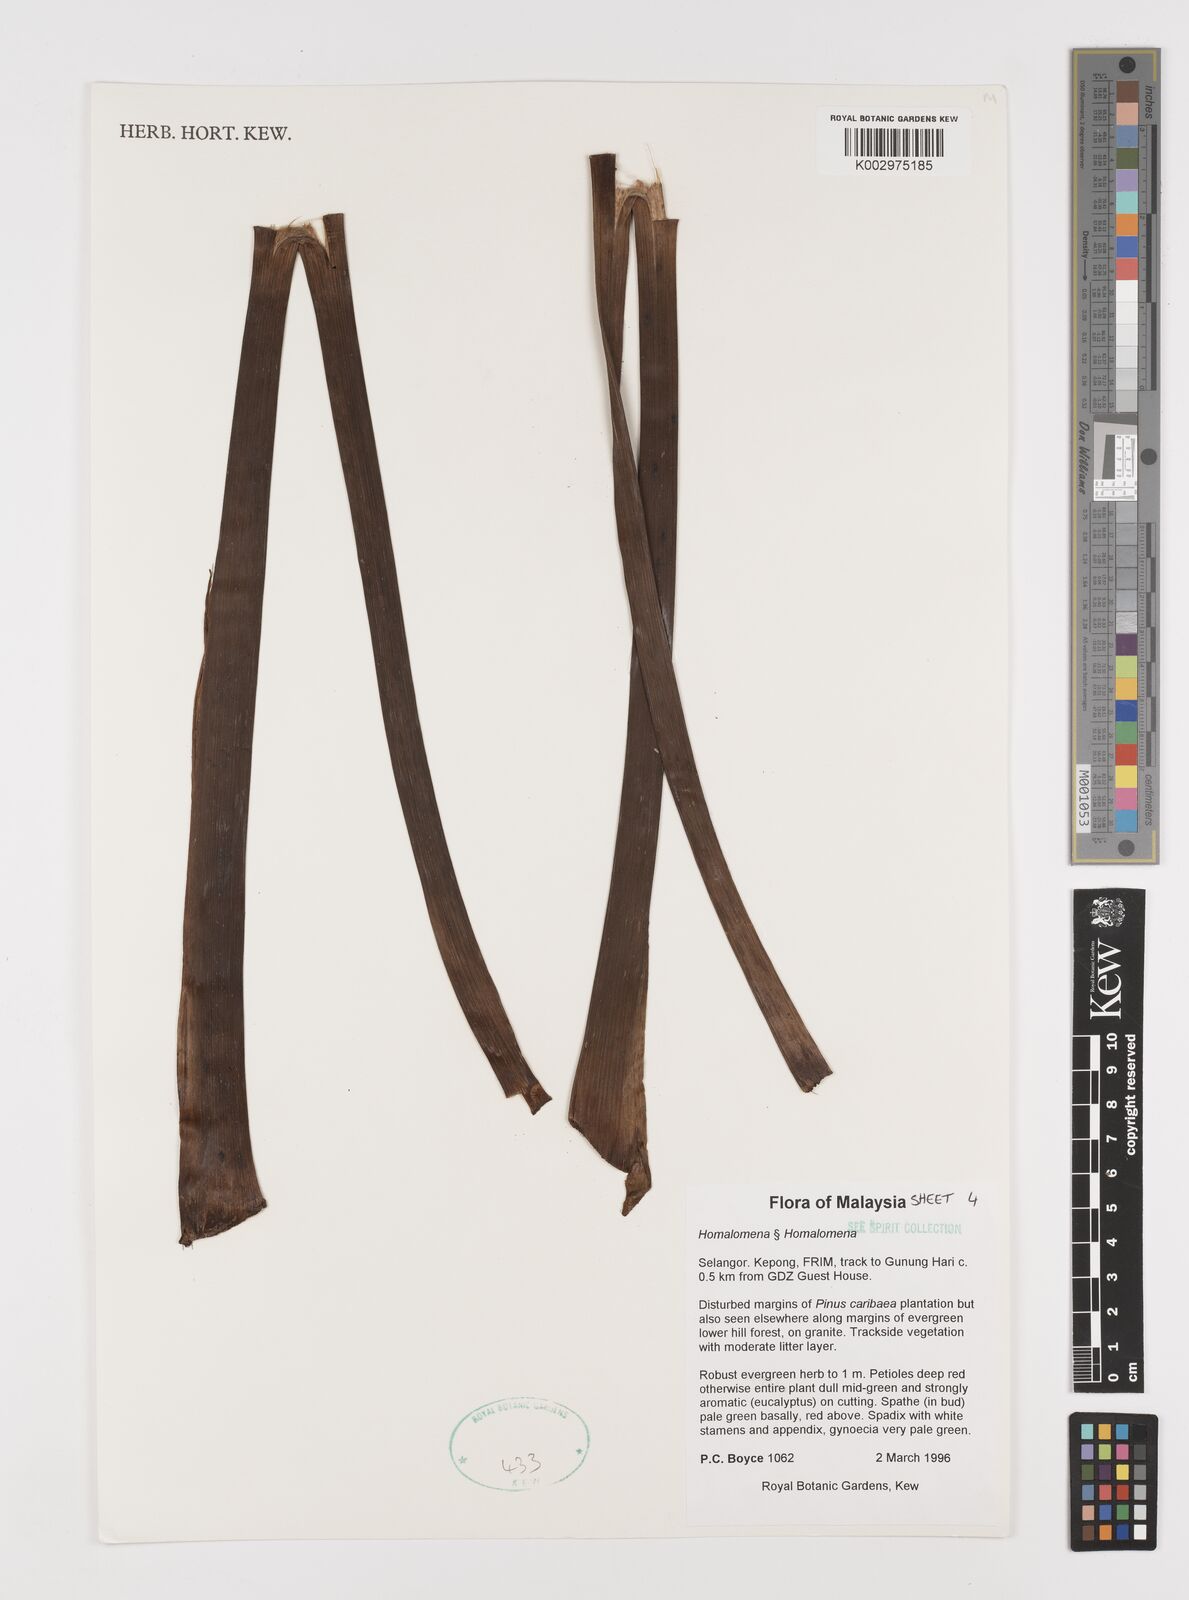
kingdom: Plantae
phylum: Tracheophyta
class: Liliopsida
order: Alismatales
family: Araceae
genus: Homalomena
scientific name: Homalomena
